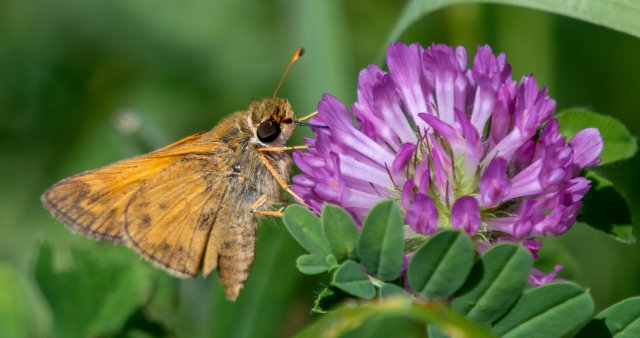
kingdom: Animalia
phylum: Arthropoda
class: Insecta
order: Lepidoptera
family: Hesperiidae
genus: Atalopedes
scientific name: Atalopedes campestris
